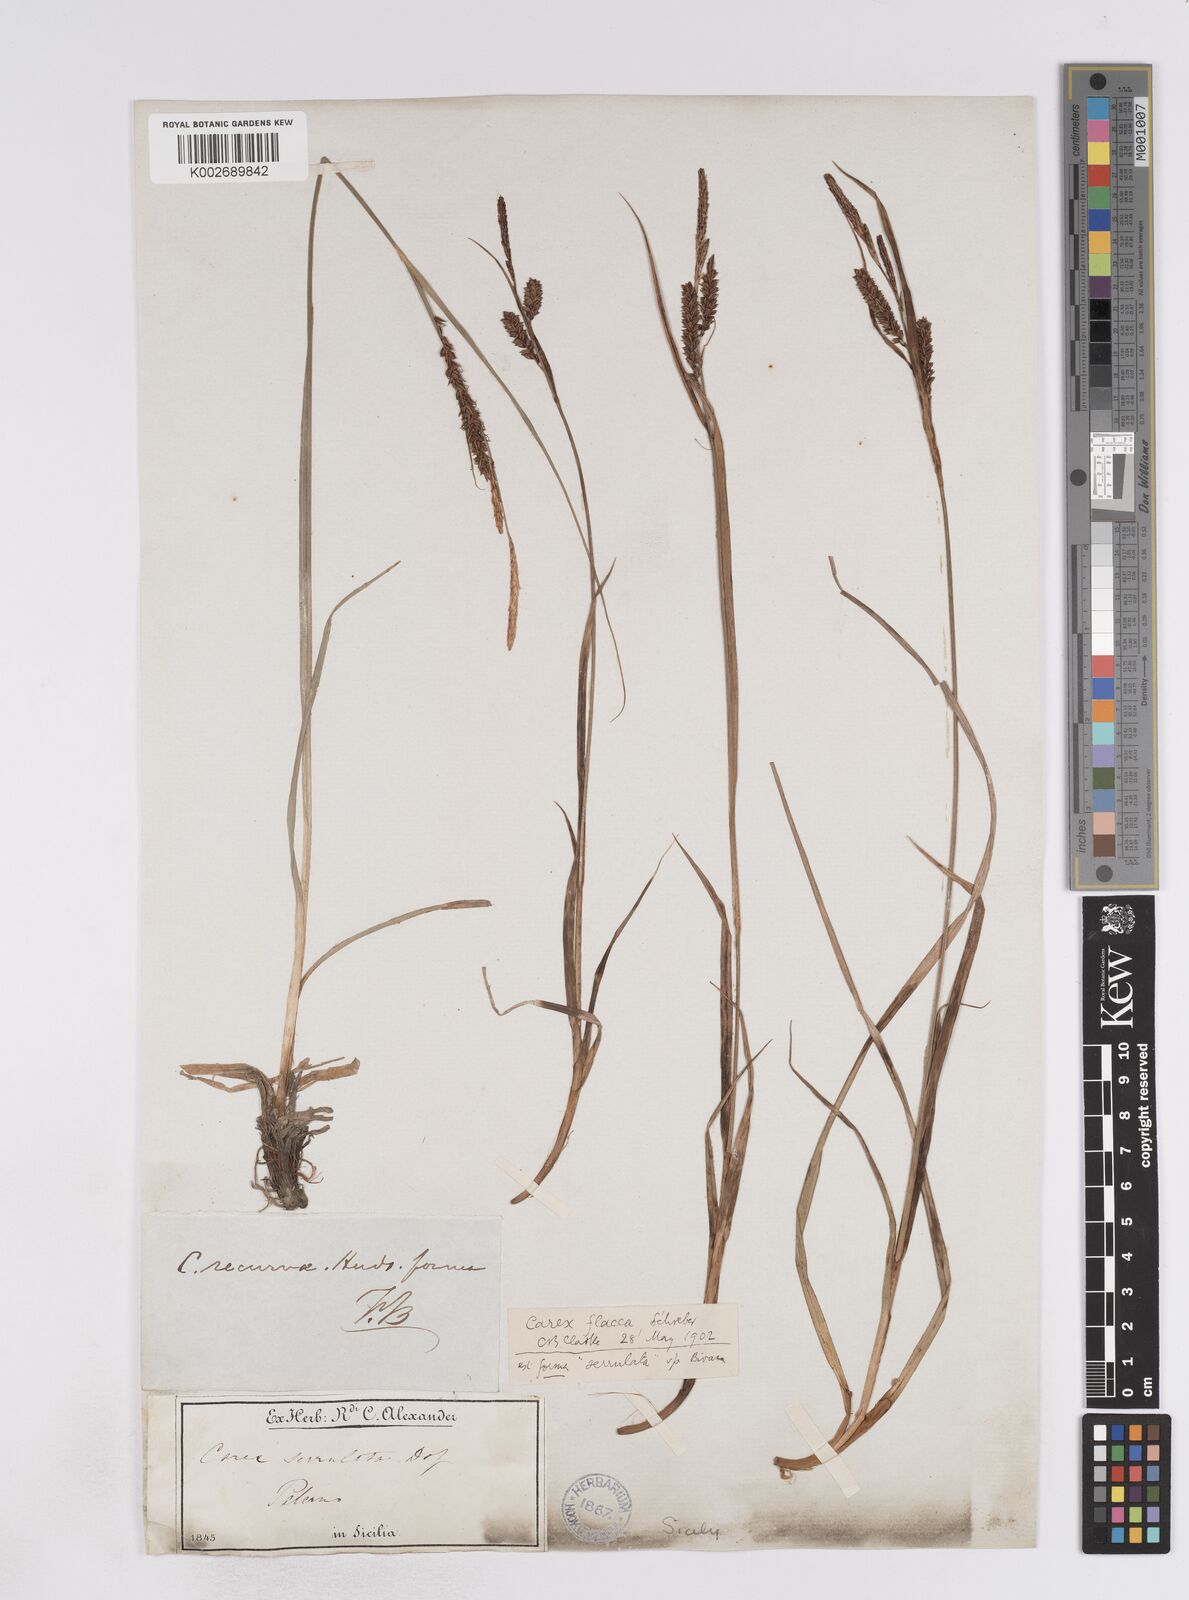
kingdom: Plantae
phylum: Tracheophyta
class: Liliopsida
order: Poales
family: Cyperaceae
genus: Carex
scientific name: Carex flacca
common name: Glaucous sedge
